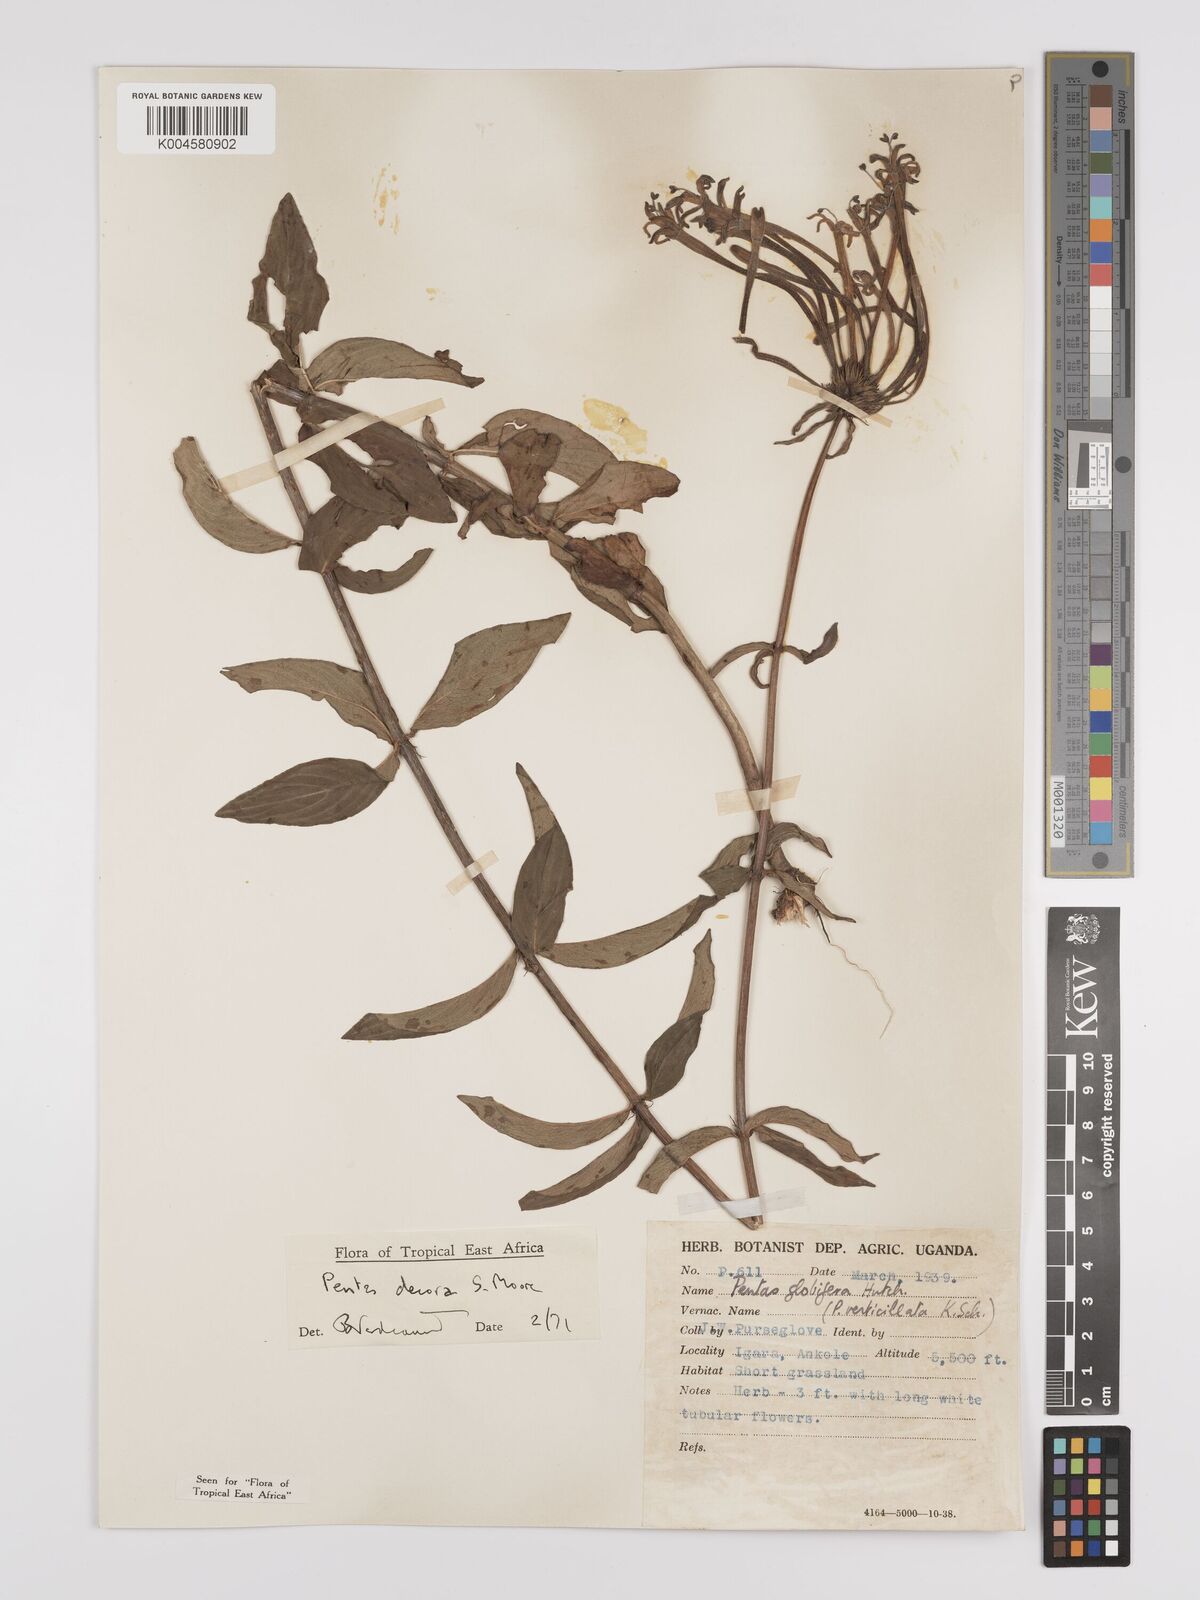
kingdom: Plantae
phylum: Tracheophyta
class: Magnoliopsida
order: Gentianales
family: Rubiaceae
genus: Dolichopentas
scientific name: Dolichopentas decora
